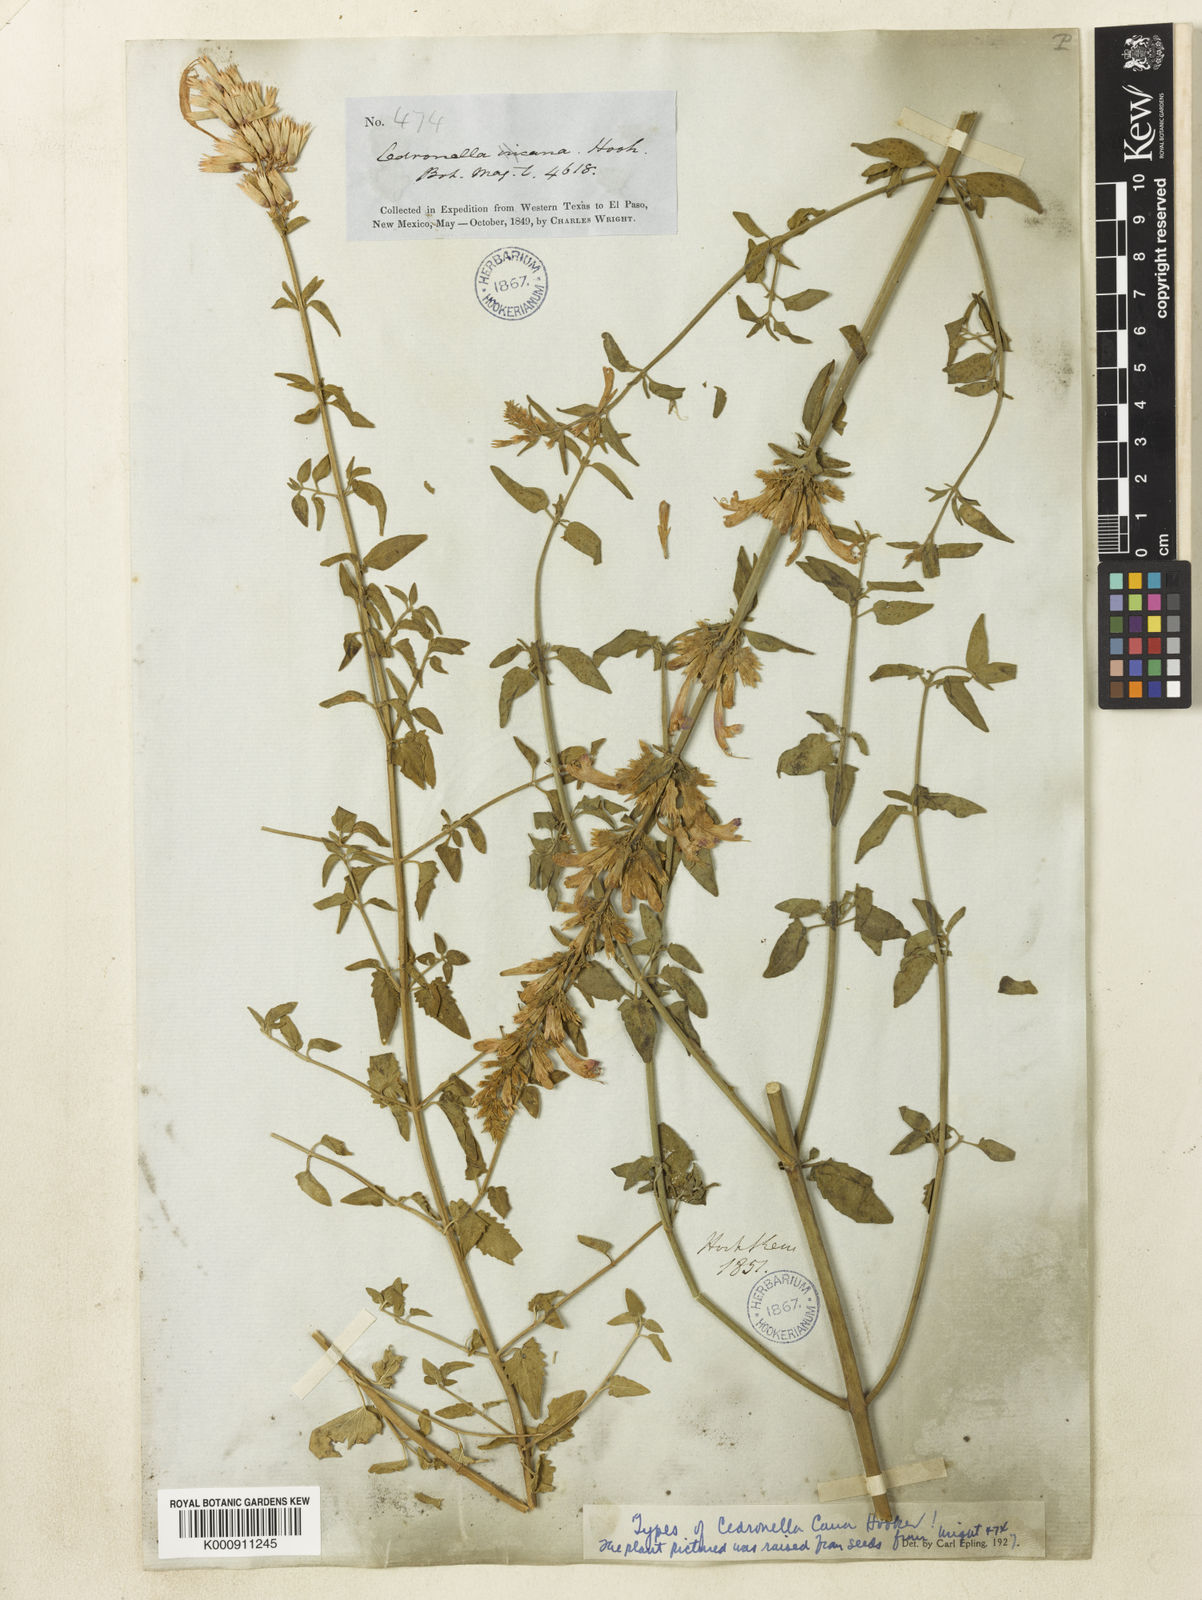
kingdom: Plantae
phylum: Tracheophyta
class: Magnoliopsida
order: Lamiales
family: Lamiaceae
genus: Agastache
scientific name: Agastache cana
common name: Double bubble mint
